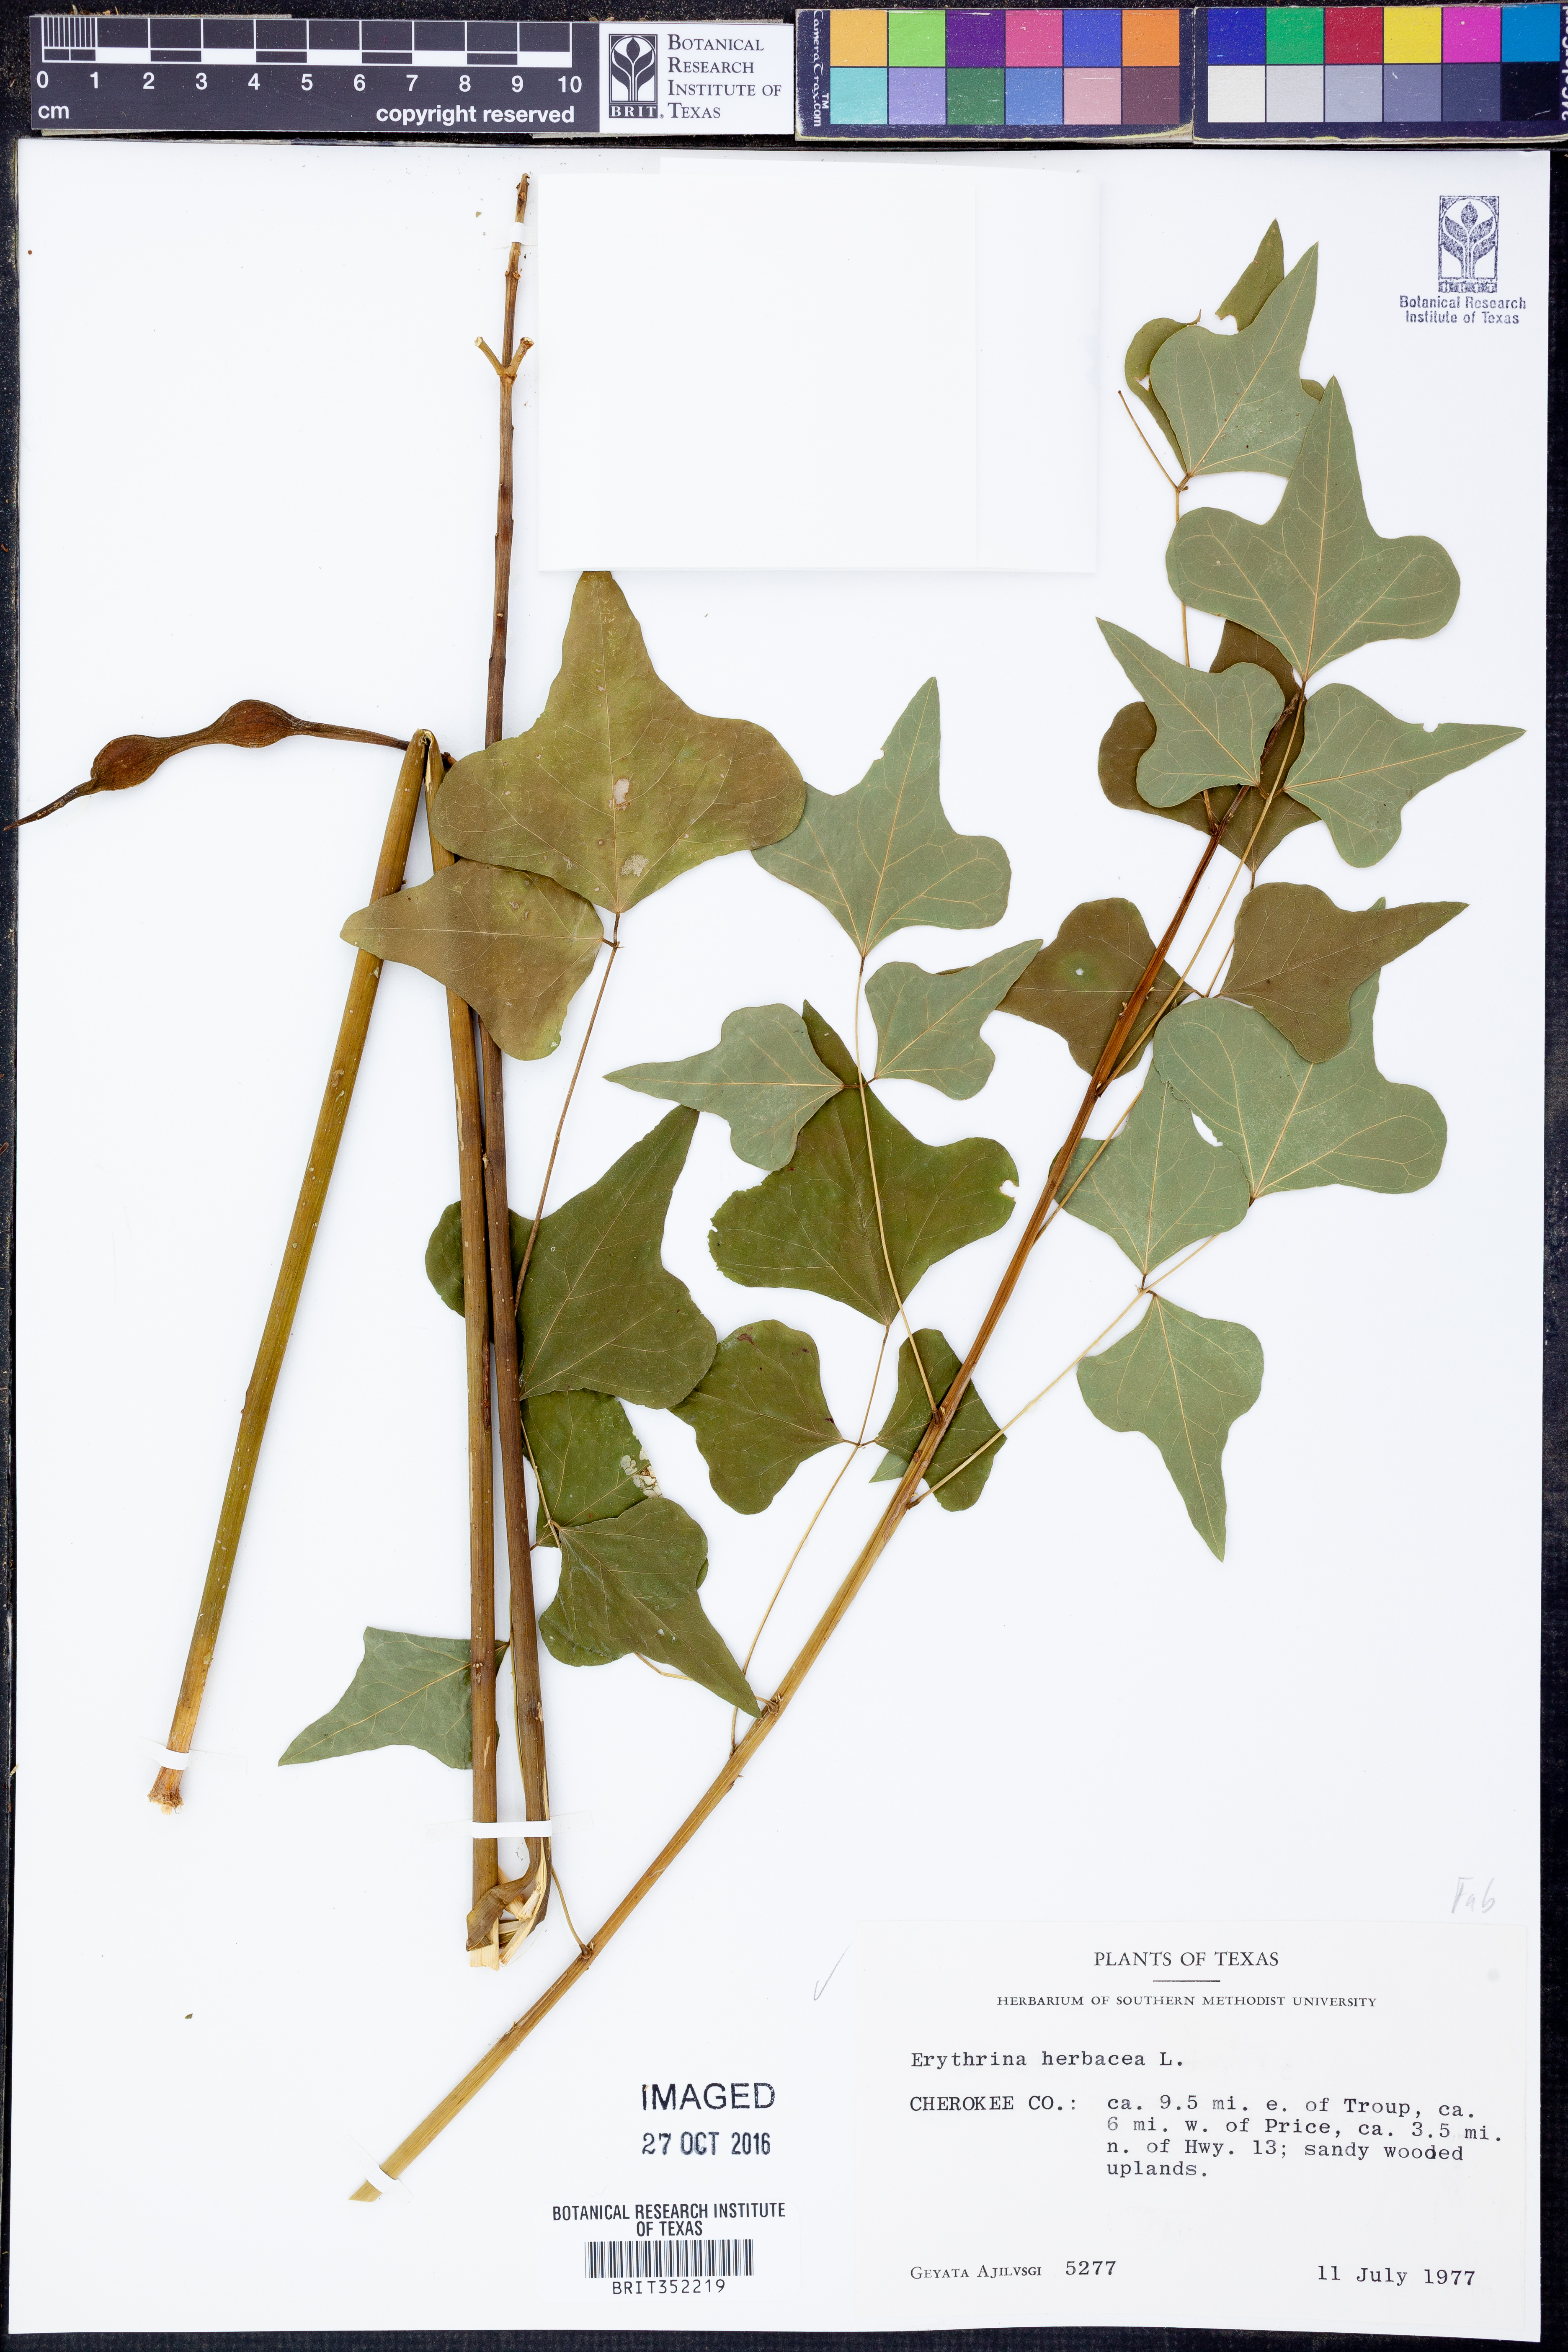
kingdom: Plantae
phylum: Tracheophyta
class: Magnoliopsida
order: Fabales
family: Fabaceae
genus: Erythrina
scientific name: Erythrina herbacea
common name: Coral-bean
